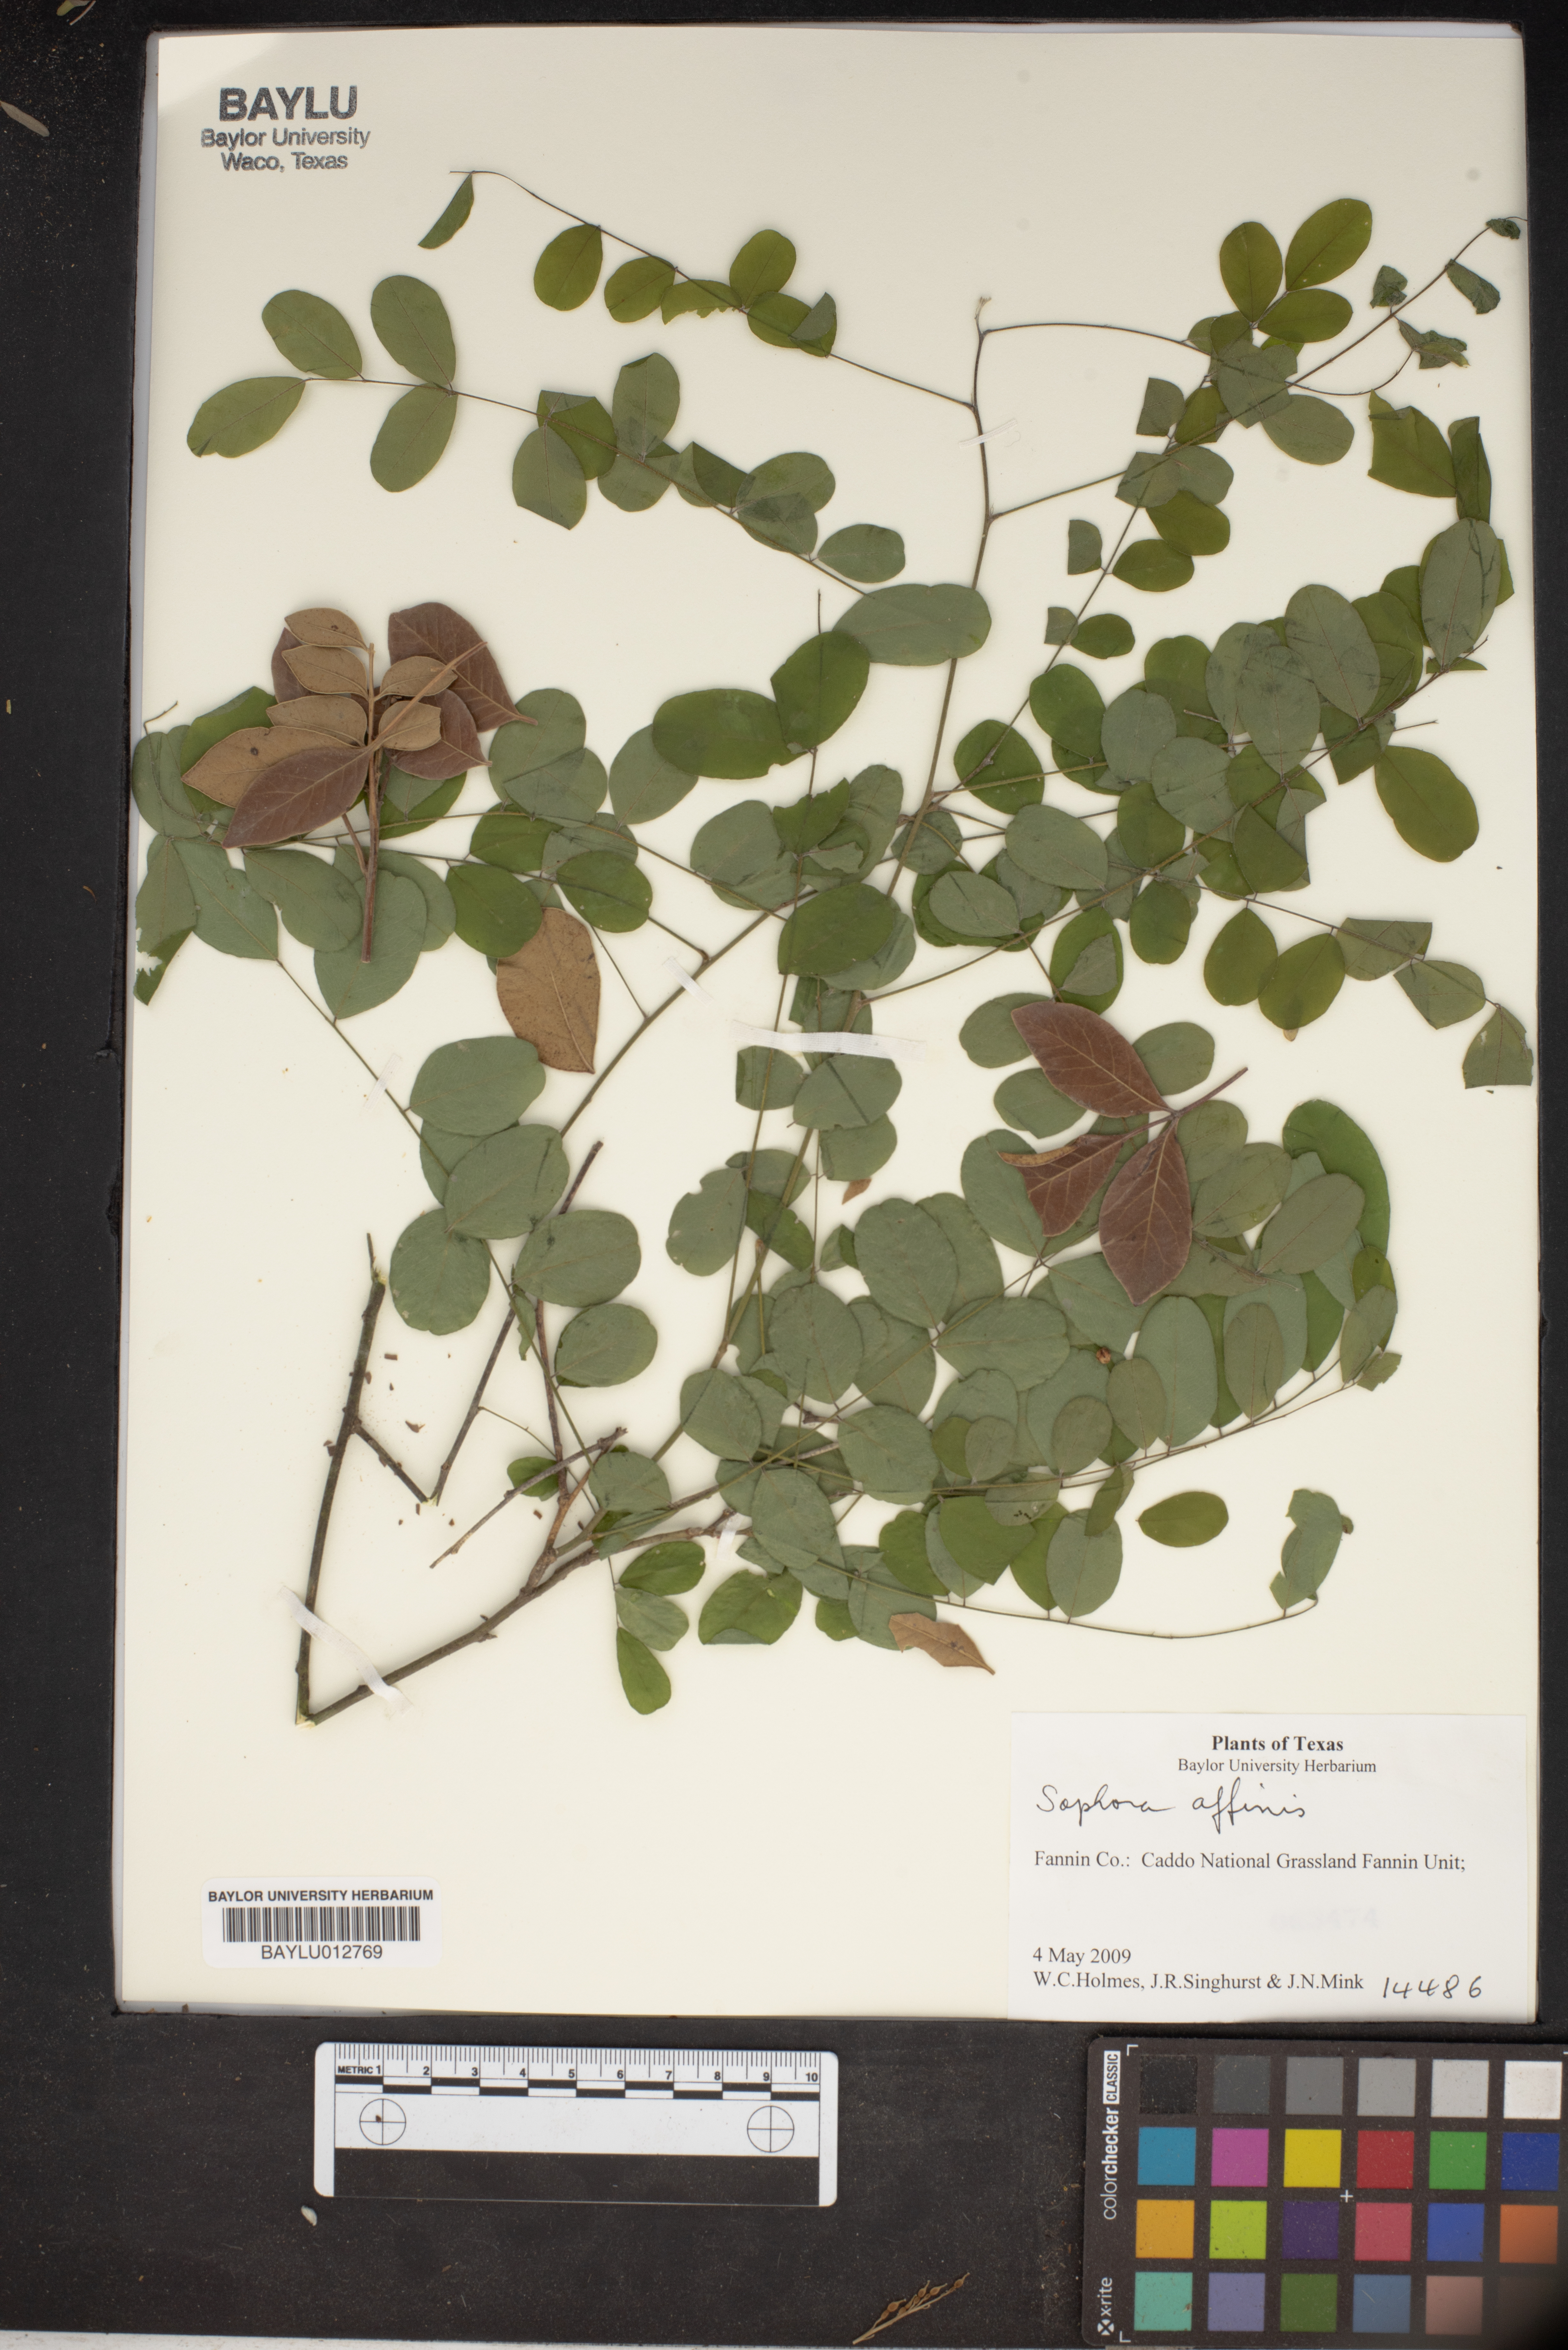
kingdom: Plantae
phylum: Tracheophyta
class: Magnoliopsida
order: Fabales
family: Fabaceae
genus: Styphnolobium
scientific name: Styphnolobium affine
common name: Texas sophora
